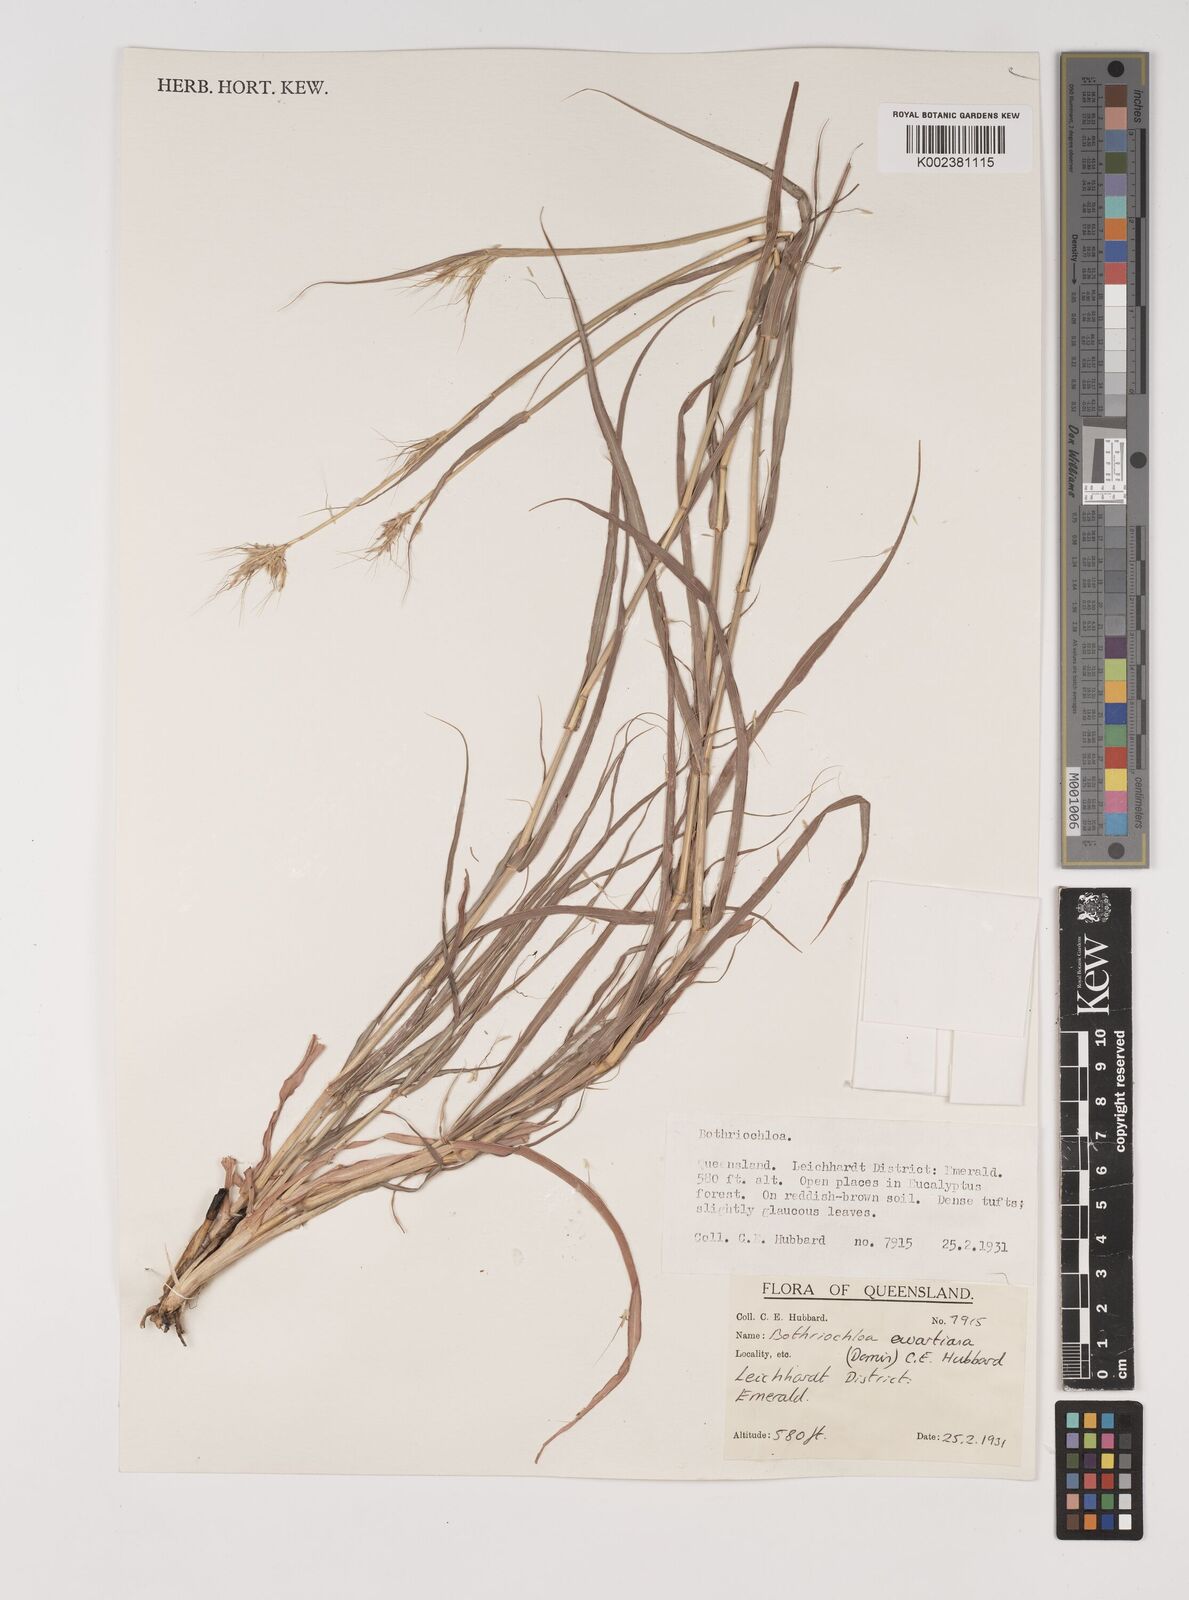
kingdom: Plantae
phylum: Tracheophyta
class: Liliopsida
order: Poales
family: Poaceae
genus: Bothriochloa
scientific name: Bothriochloa ewartiana
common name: Desert-bluegrass
